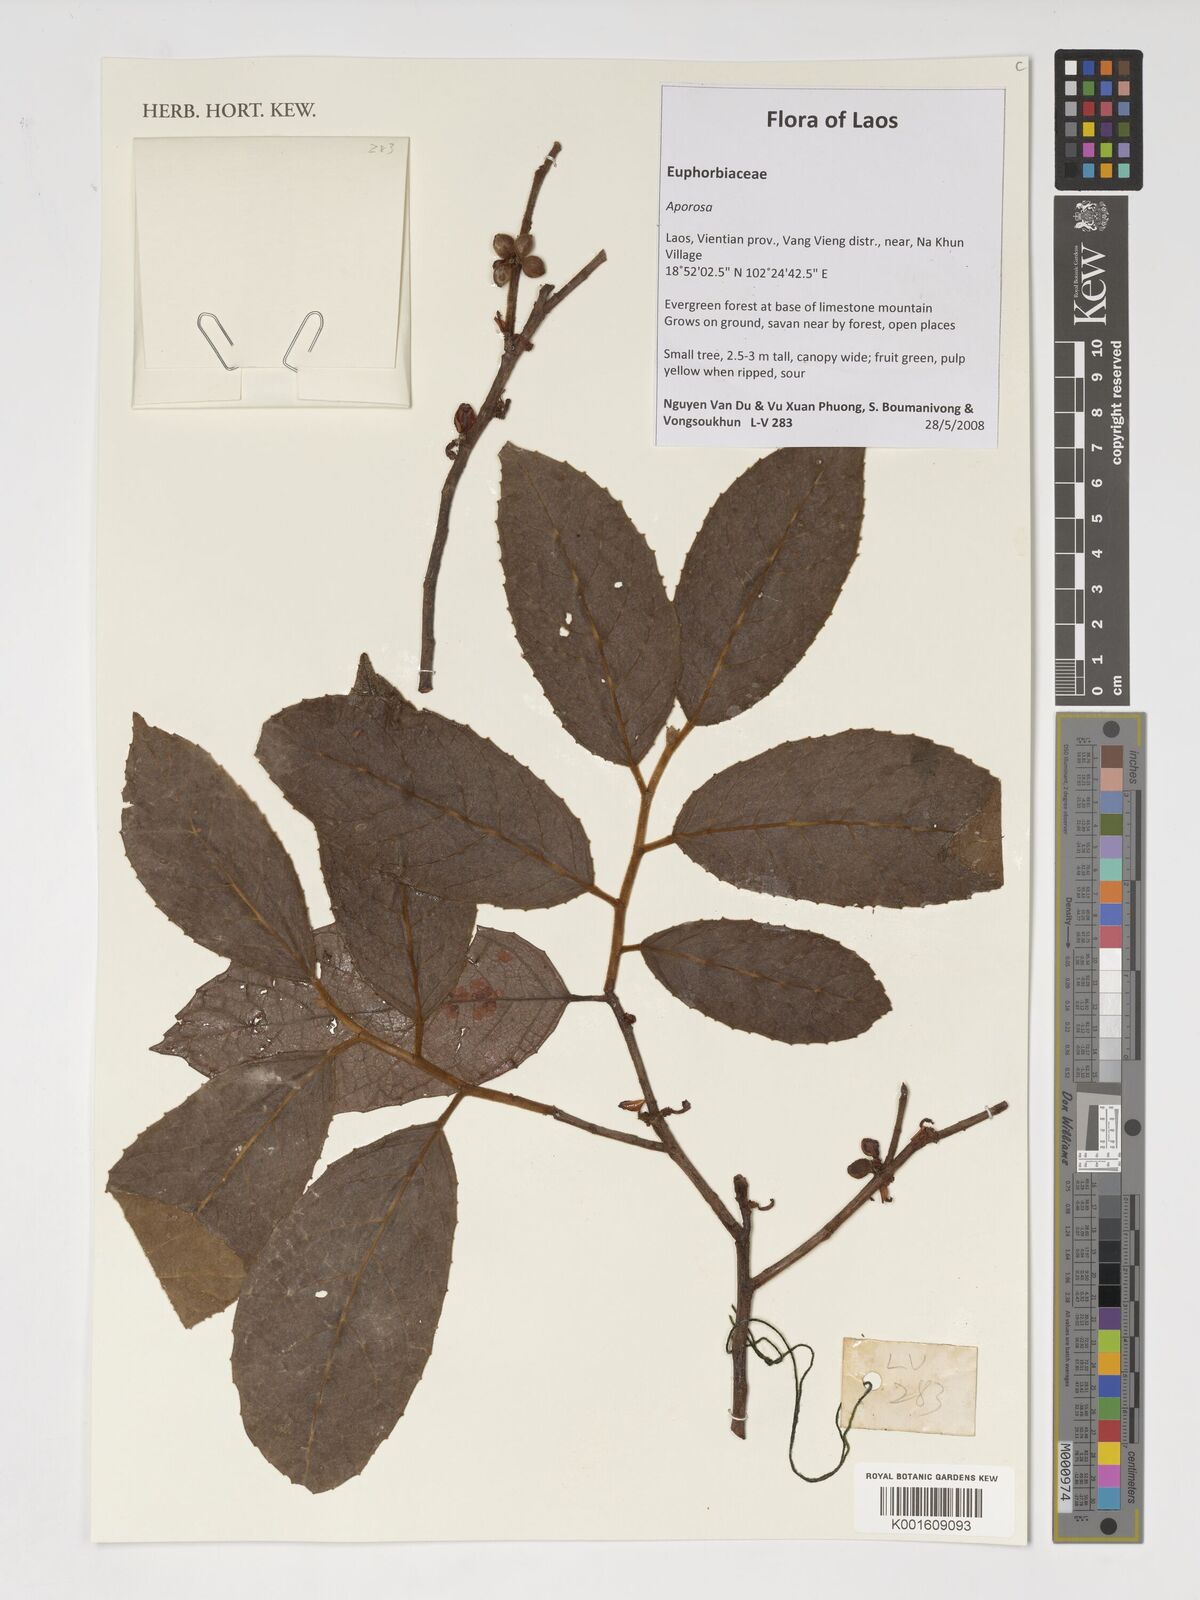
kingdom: Plantae
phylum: Tracheophyta
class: Magnoliopsida
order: Malpighiales
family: Phyllanthaceae
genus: Aporosa
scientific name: Aporosa
